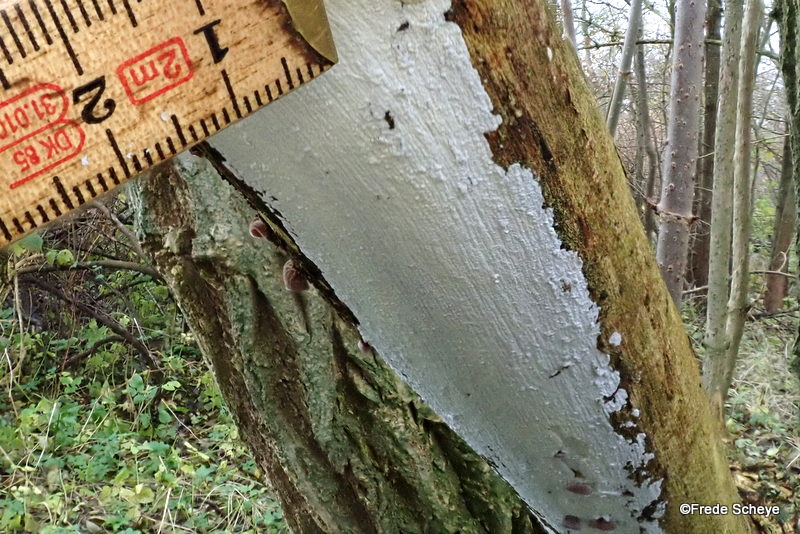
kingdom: Fungi
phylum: Basidiomycota
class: Agaricomycetes
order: Corticiales
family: Corticiaceae
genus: Lyomyces
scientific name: Lyomyces sambuci
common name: almindelig hyldehinde
